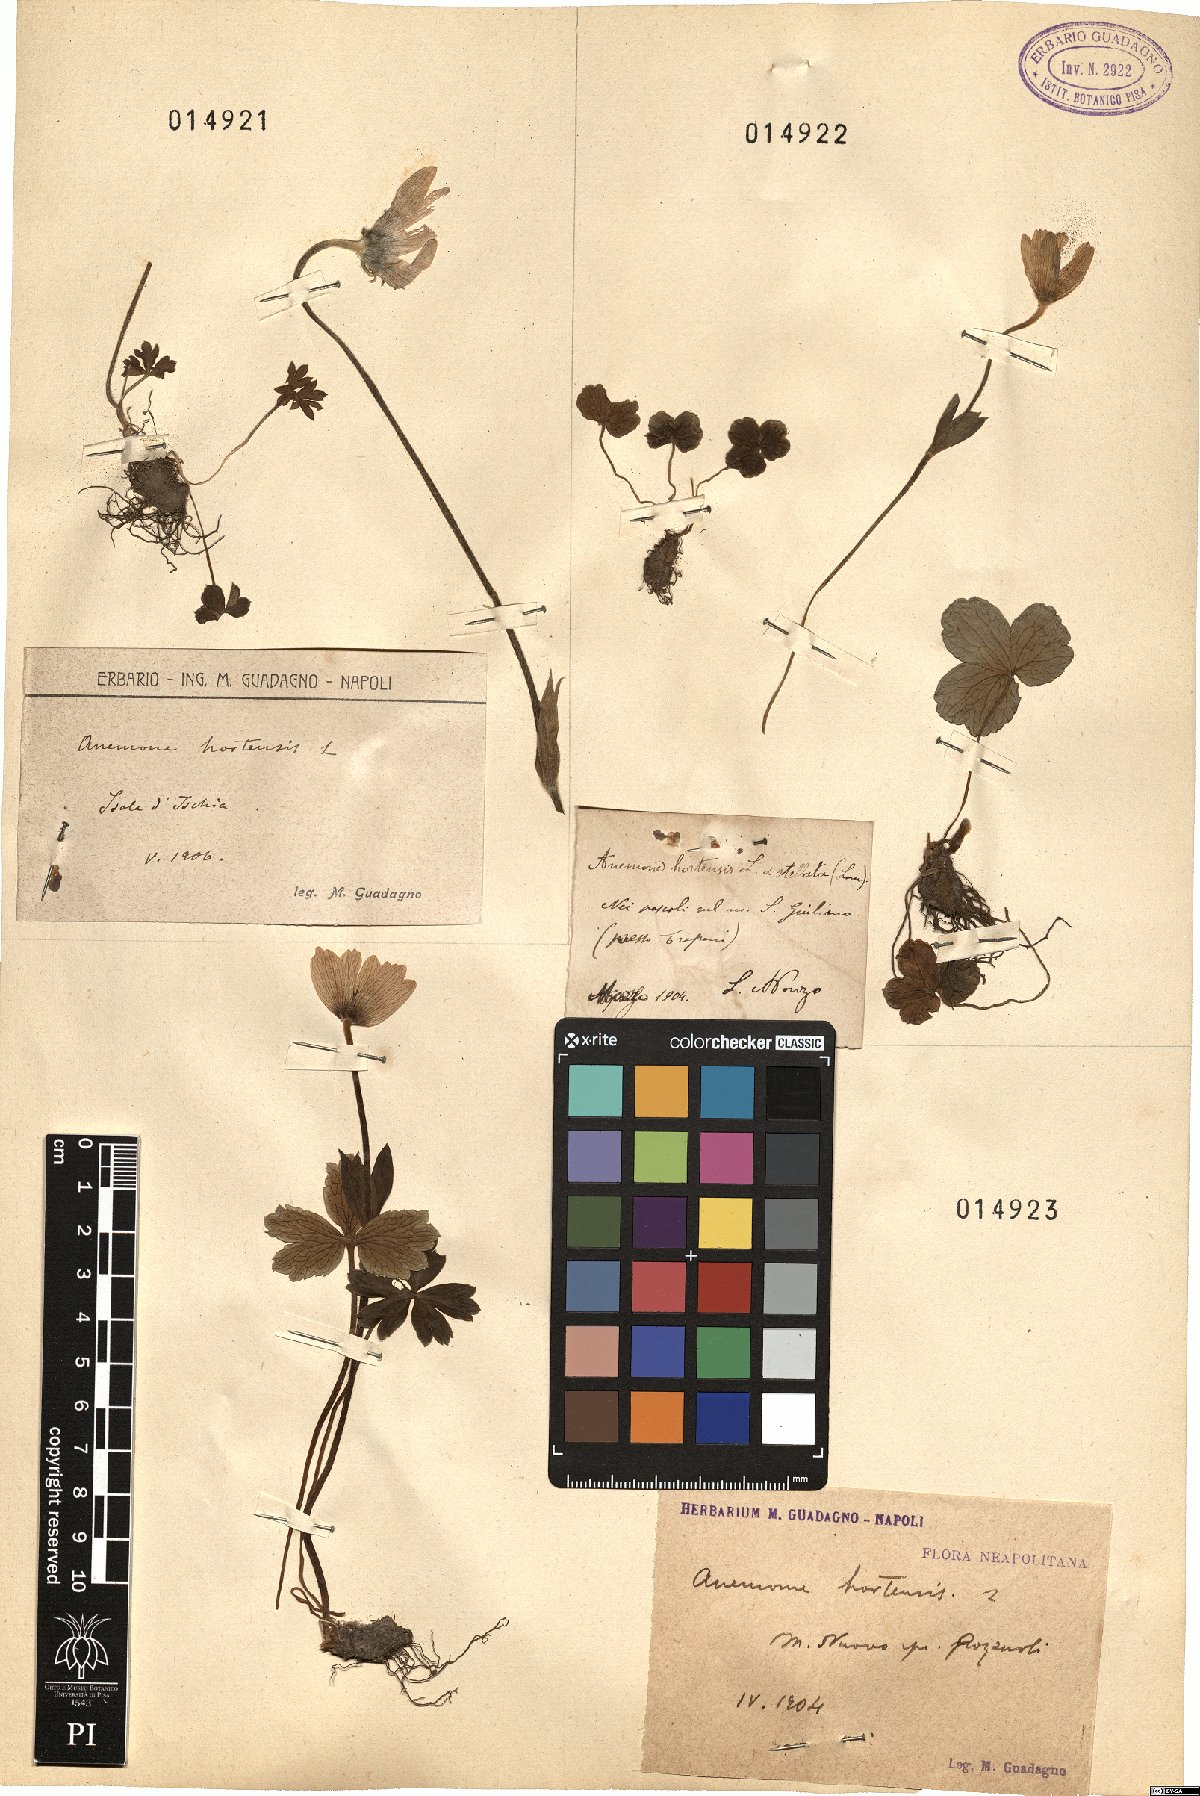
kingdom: Plantae
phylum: Tracheophyta
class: Magnoliopsida
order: Ranunculales
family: Ranunculaceae
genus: Anemone
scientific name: Anemone hortensis
